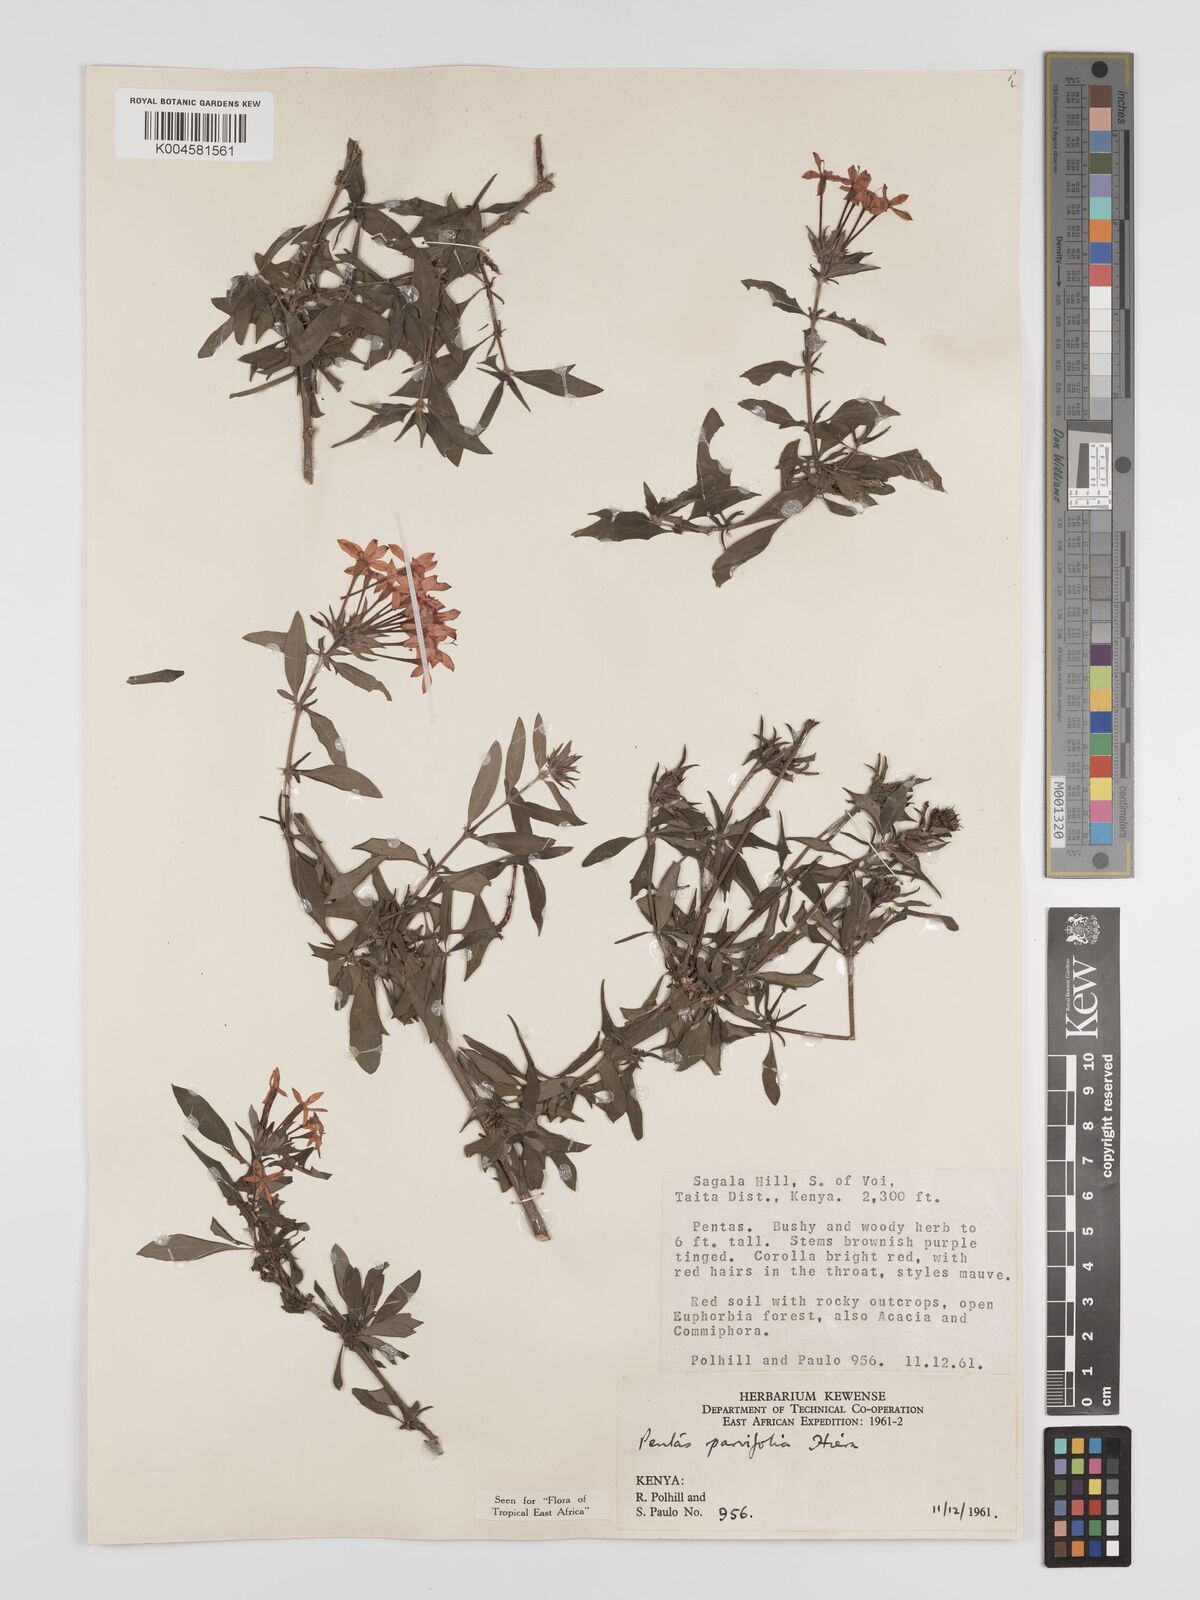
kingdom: Plantae
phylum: Tracheophyta
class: Magnoliopsida
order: Gentianales
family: Rubiaceae
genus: Rhodopentas
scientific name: Rhodopentas parvifolia
